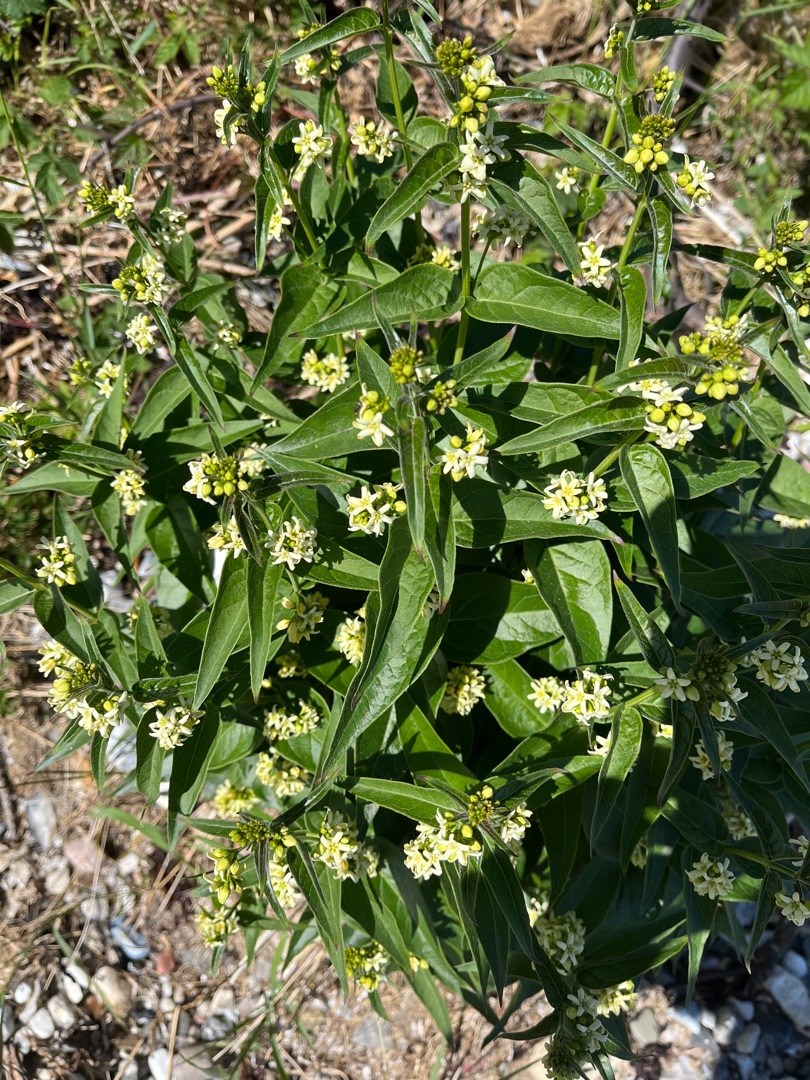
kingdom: Plantae
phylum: Tracheophyta
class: Magnoliopsida
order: Gentianales
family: Apocynaceae
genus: Vincetoxicum
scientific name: Vincetoxicum hirundinaria
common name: Svalerod
